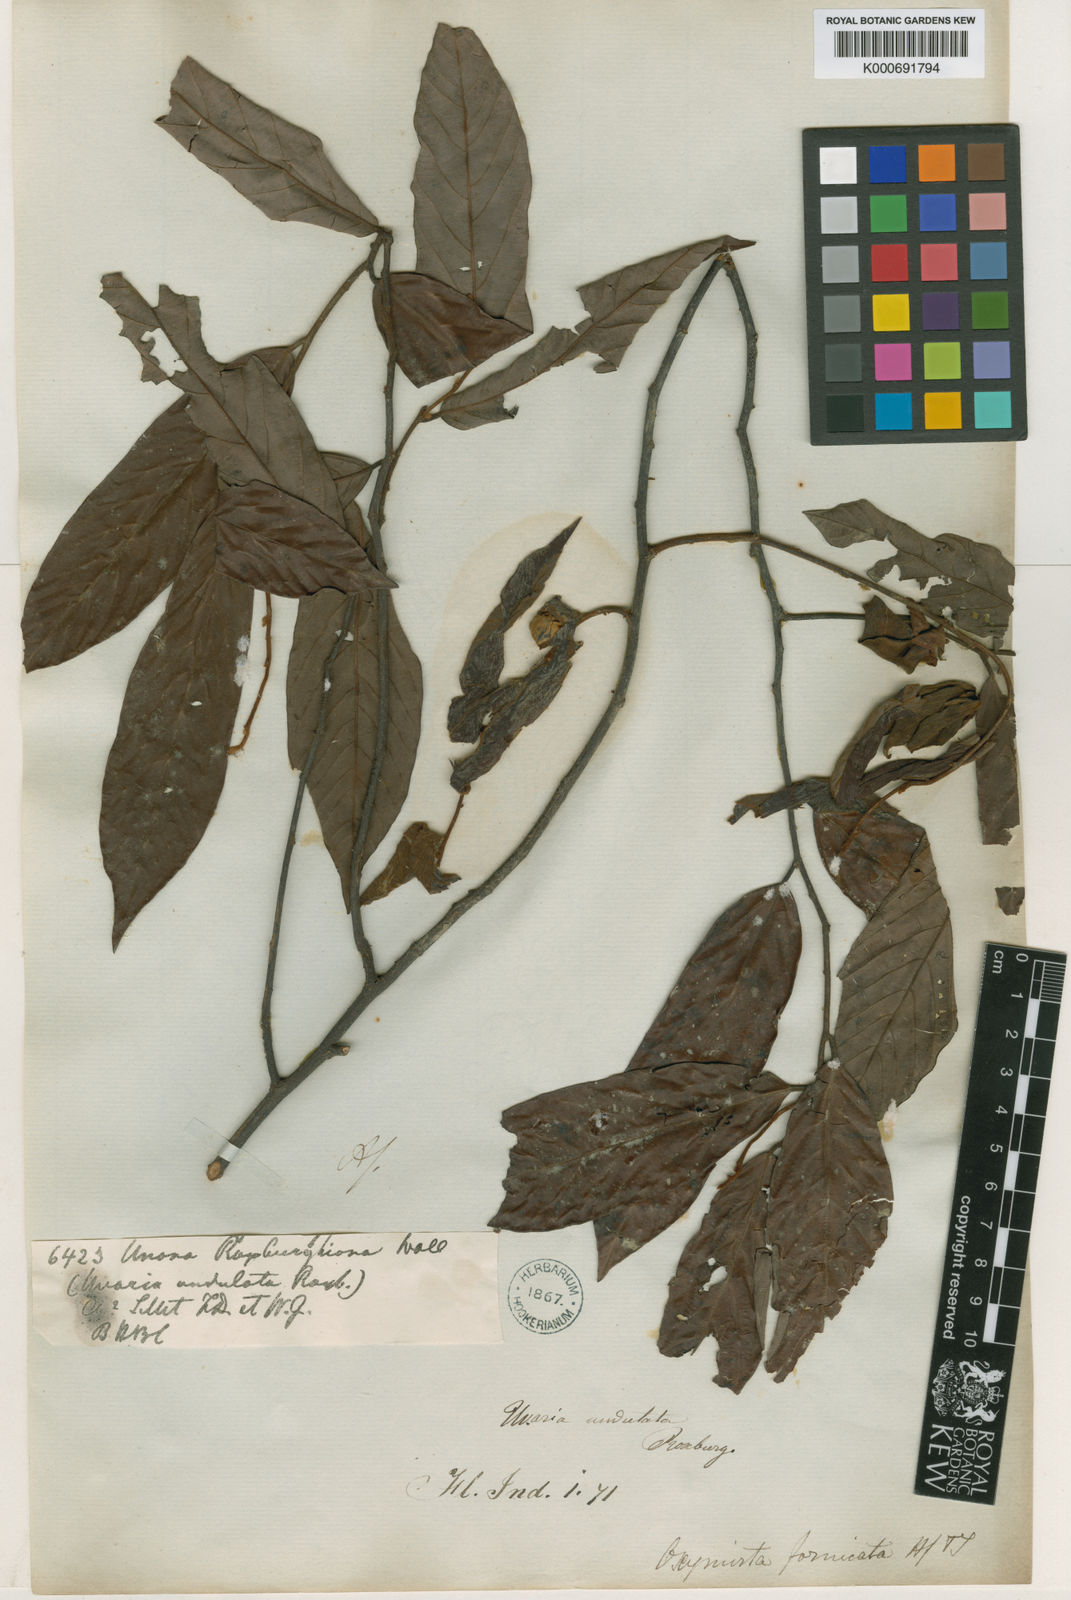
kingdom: Plantae
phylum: Tracheophyta
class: Magnoliopsida
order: Magnoliales
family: Annonaceae
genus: Friesodielsia
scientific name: Friesodielsia fornicata
